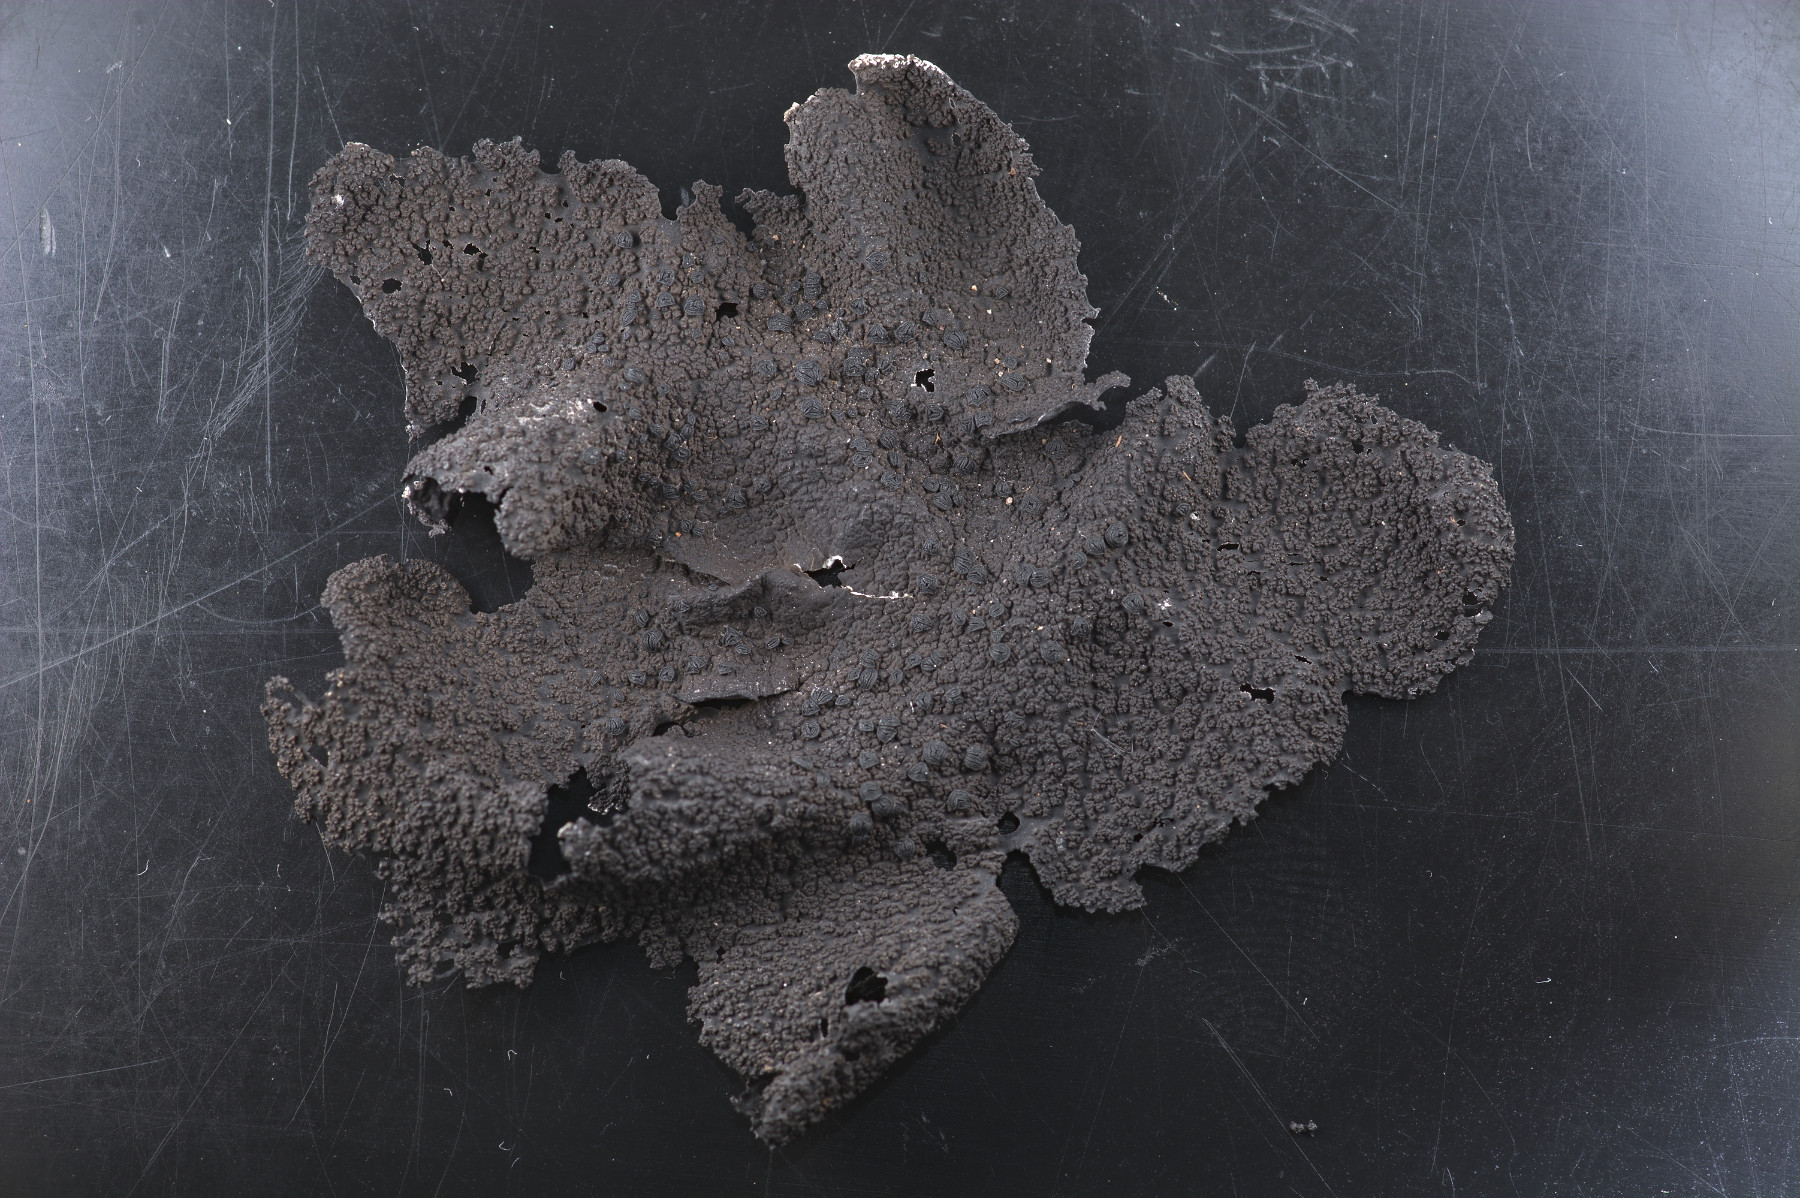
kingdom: Fungi
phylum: Ascomycota
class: Lecanoromycetes
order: Umbilicariales
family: Umbilicariaceae
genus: Umbilicaria
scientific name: Umbilicaria hyperborea
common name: nordisk navlelav
